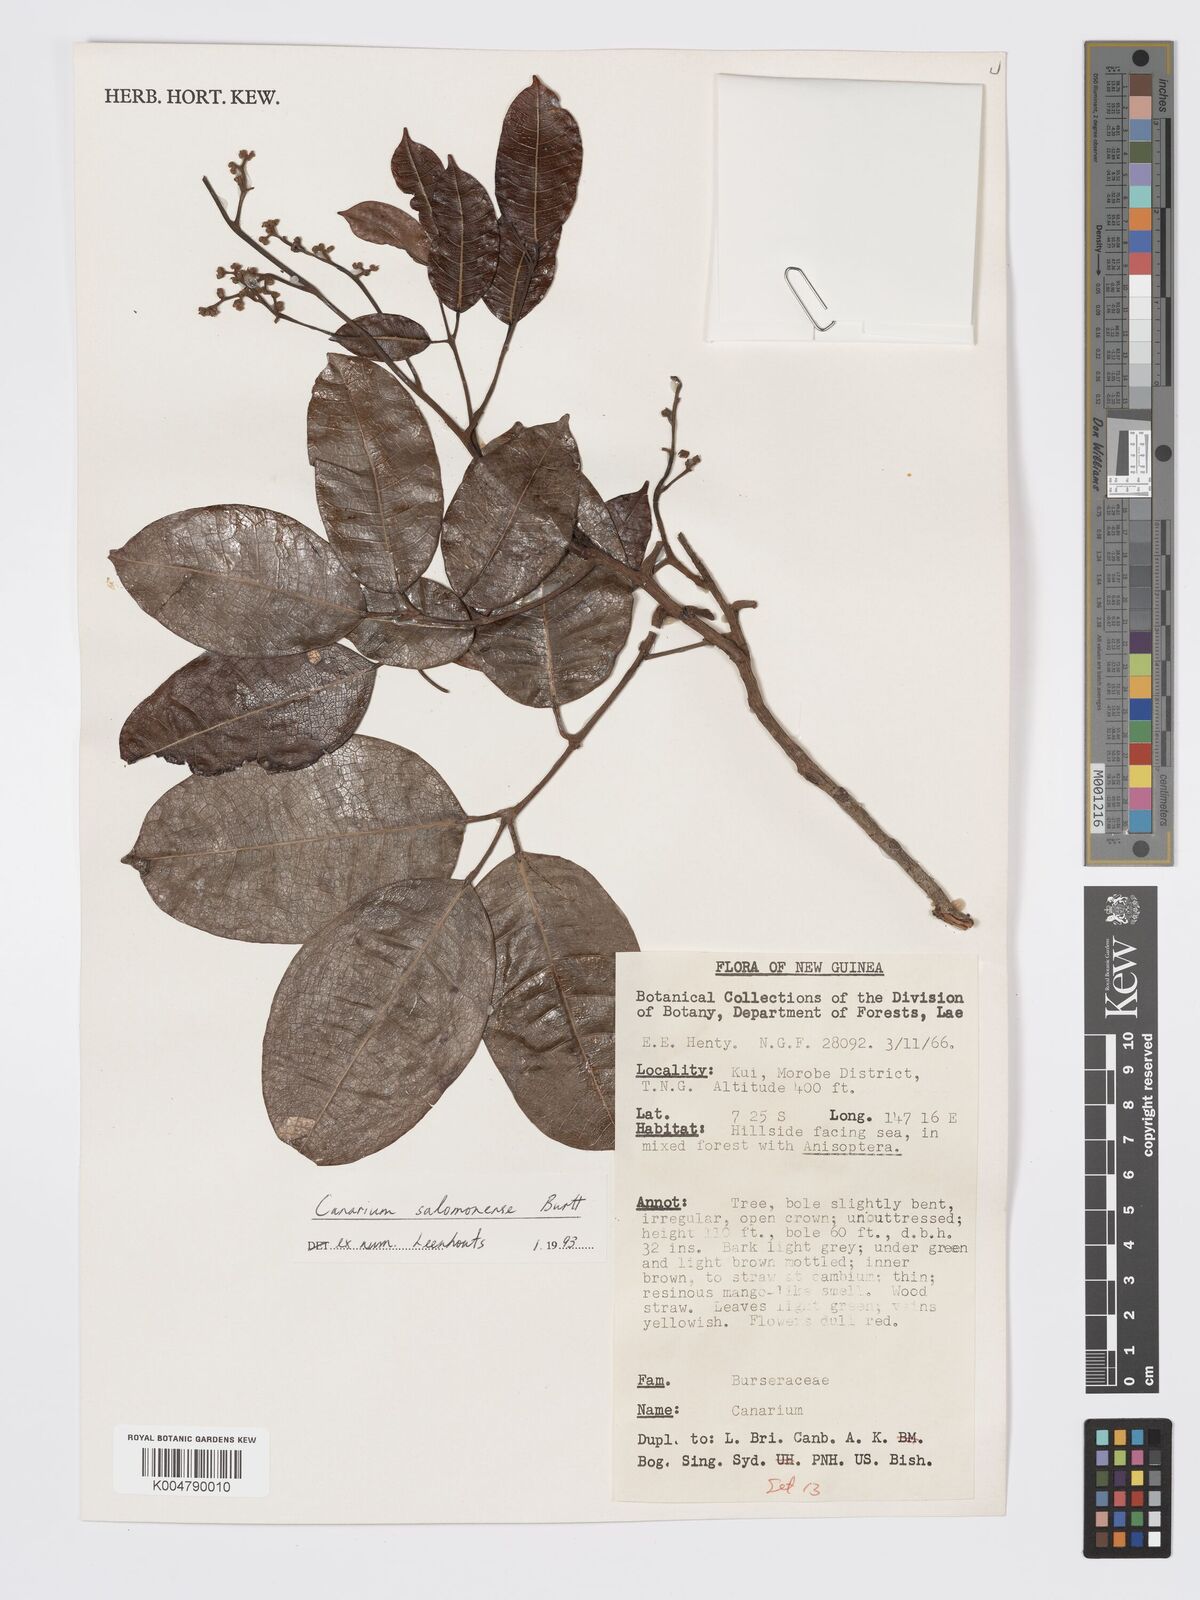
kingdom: Plantae
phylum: Tracheophyta
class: Magnoliopsida
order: Sapindales
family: Burseraceae
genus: Canarium
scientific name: Canarium salomonense
